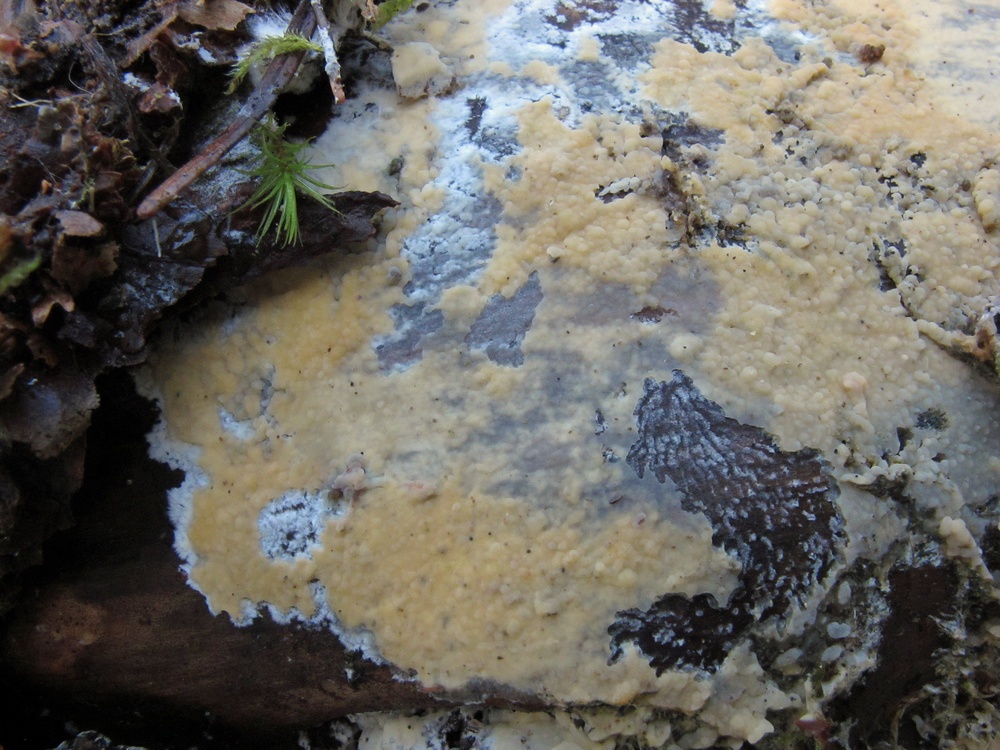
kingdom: Fungi
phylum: Basidiomycota
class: Agaricomycetes
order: Russulales
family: Xenasmataceae
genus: Xenasmatella
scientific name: Xenasmatella vaga
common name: svovl-strenghinde
